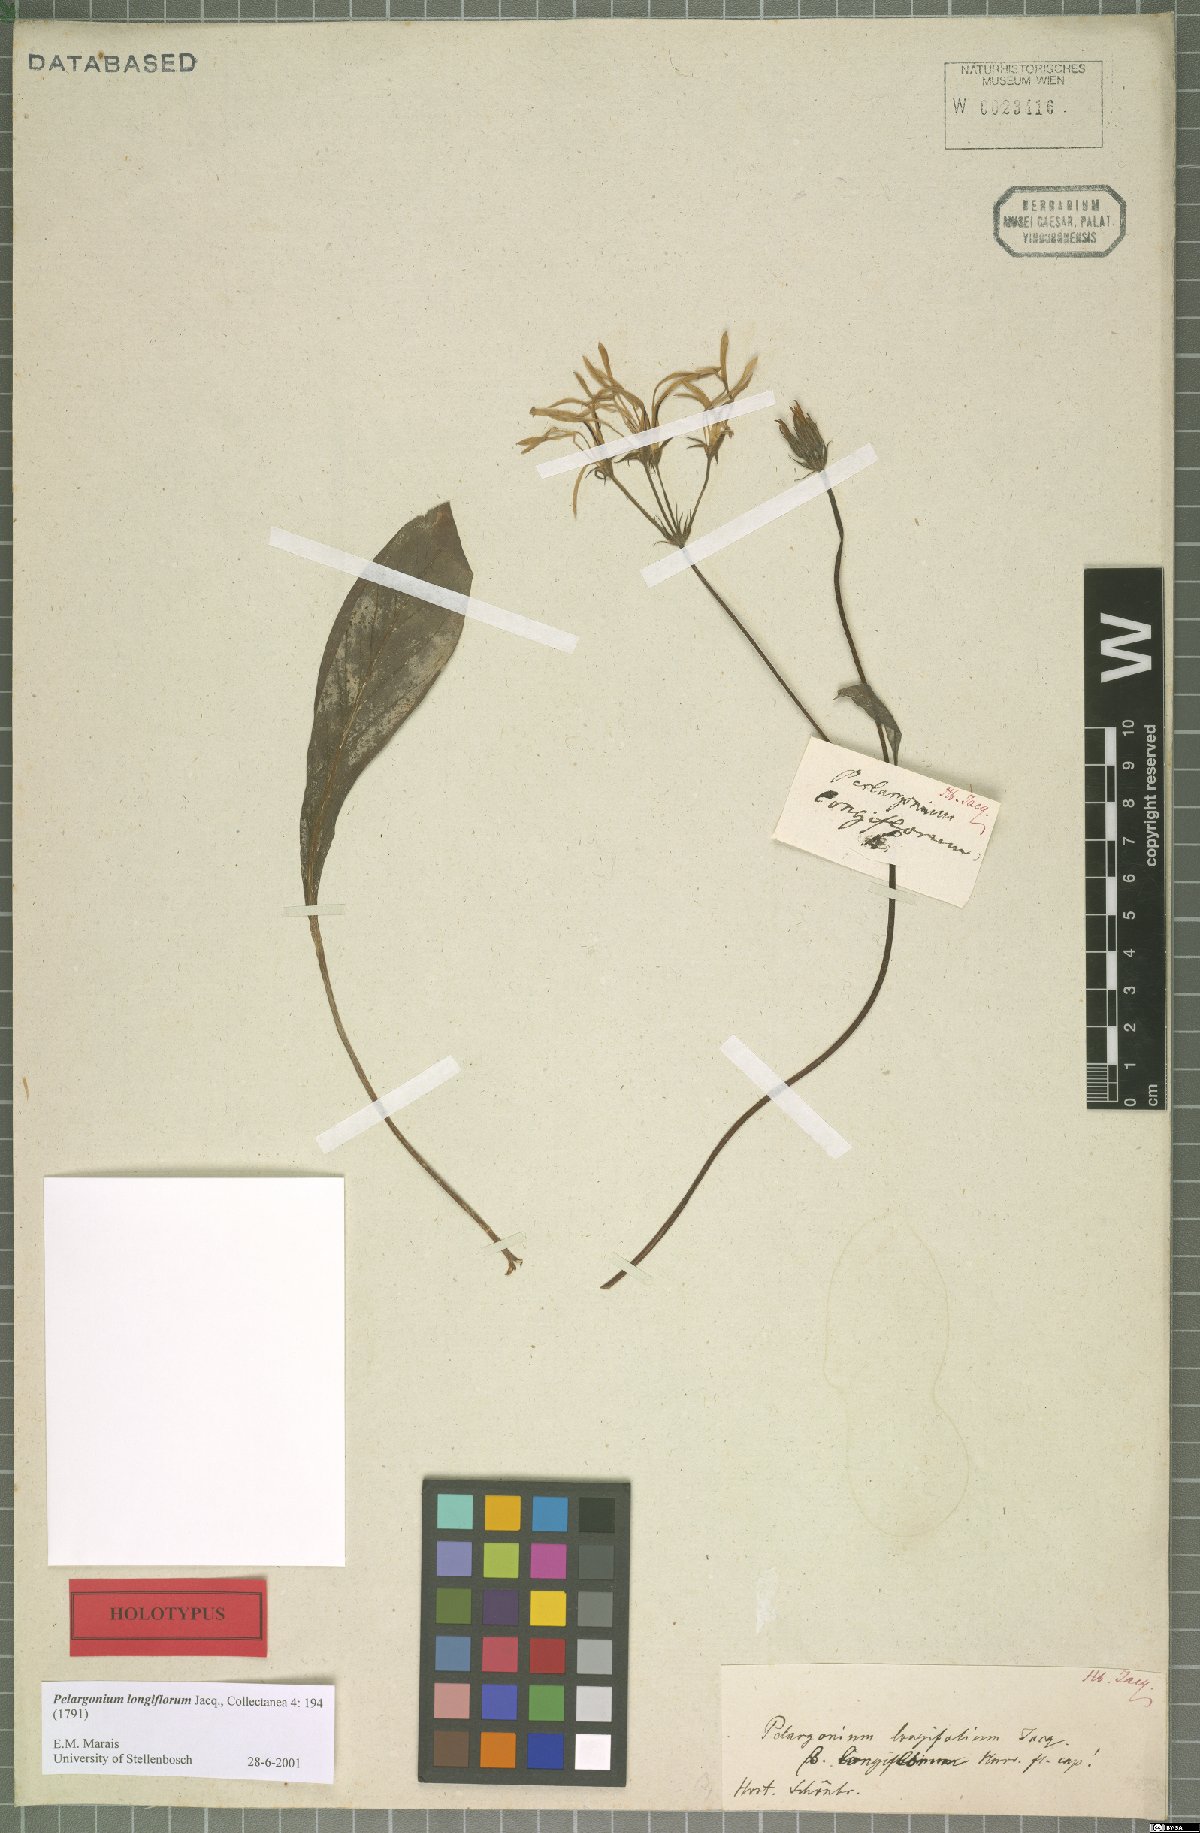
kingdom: Plantae
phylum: Tracheophyta
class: Magnoliopsida
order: Geraniales
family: Geraniaceae
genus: Pelargonium
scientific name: Pelargonium longiflorum
